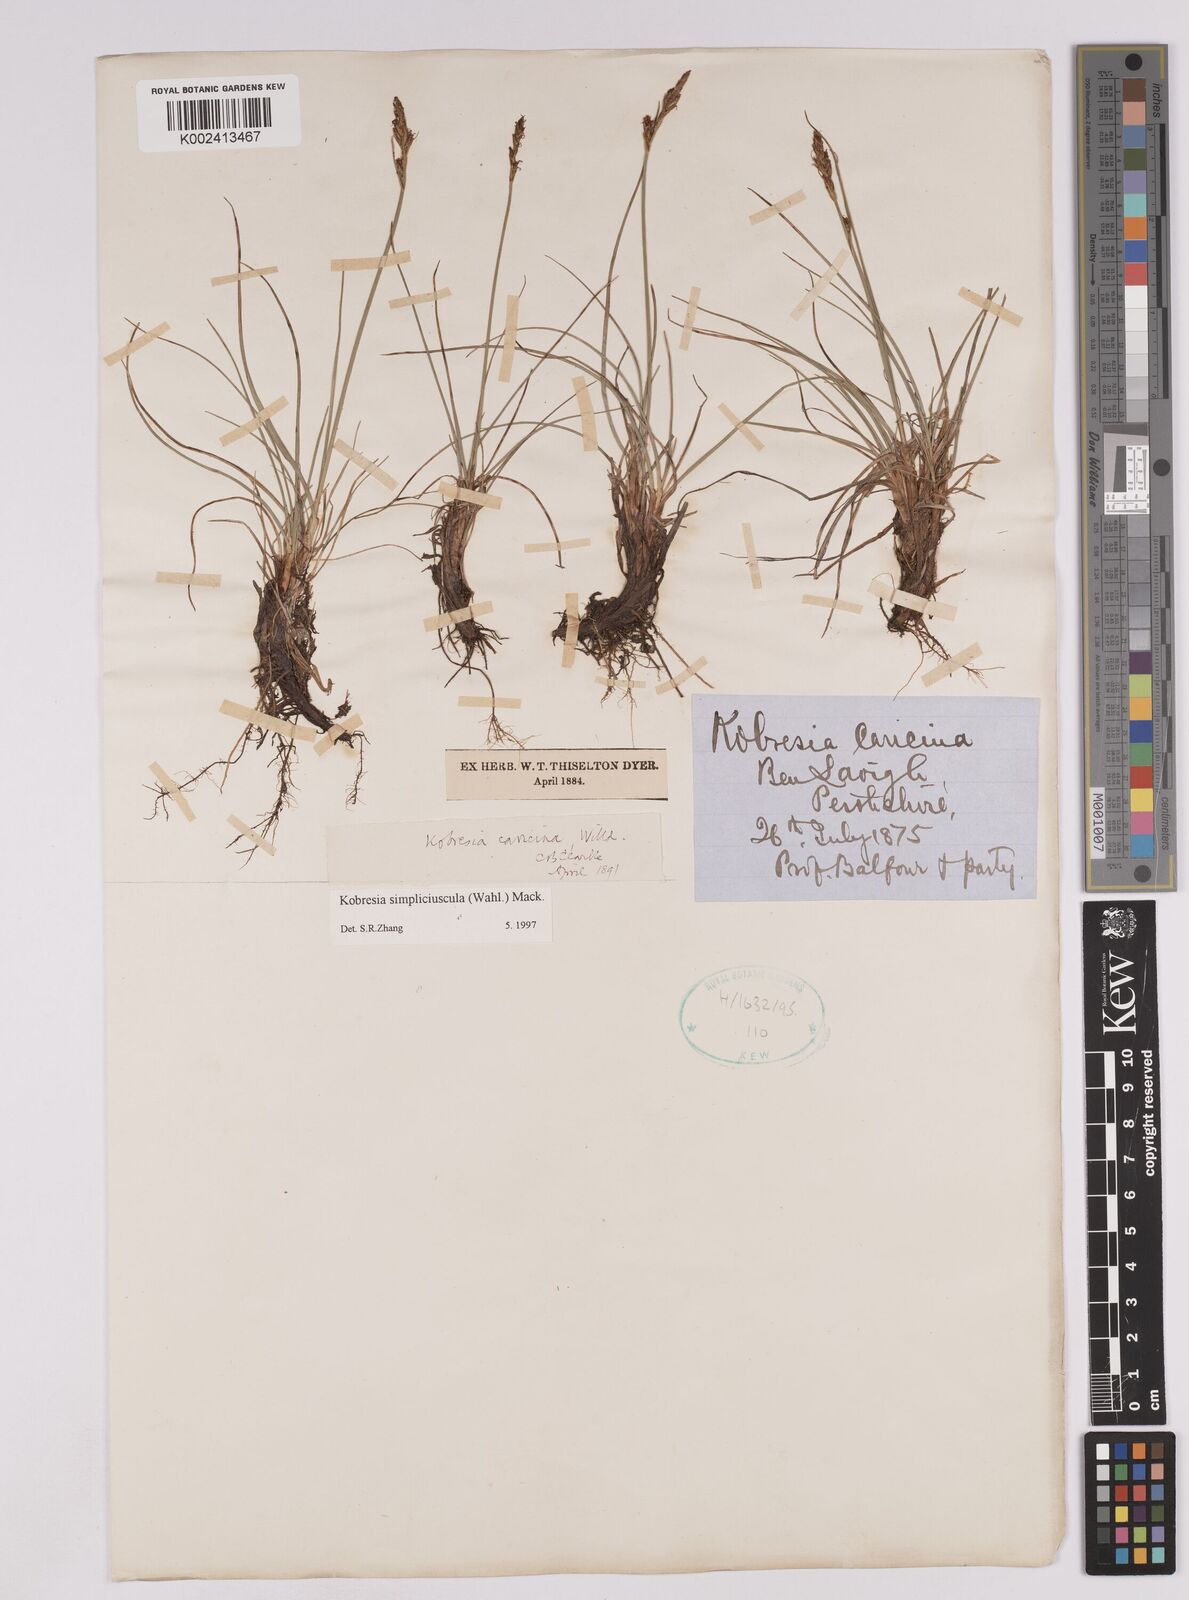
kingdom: Plantae
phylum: Tracheophyta
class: Liliopsida
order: Poales
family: Cyperaceae
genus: Carex
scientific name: Carex simpliciuscula
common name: Simple bog sedge
